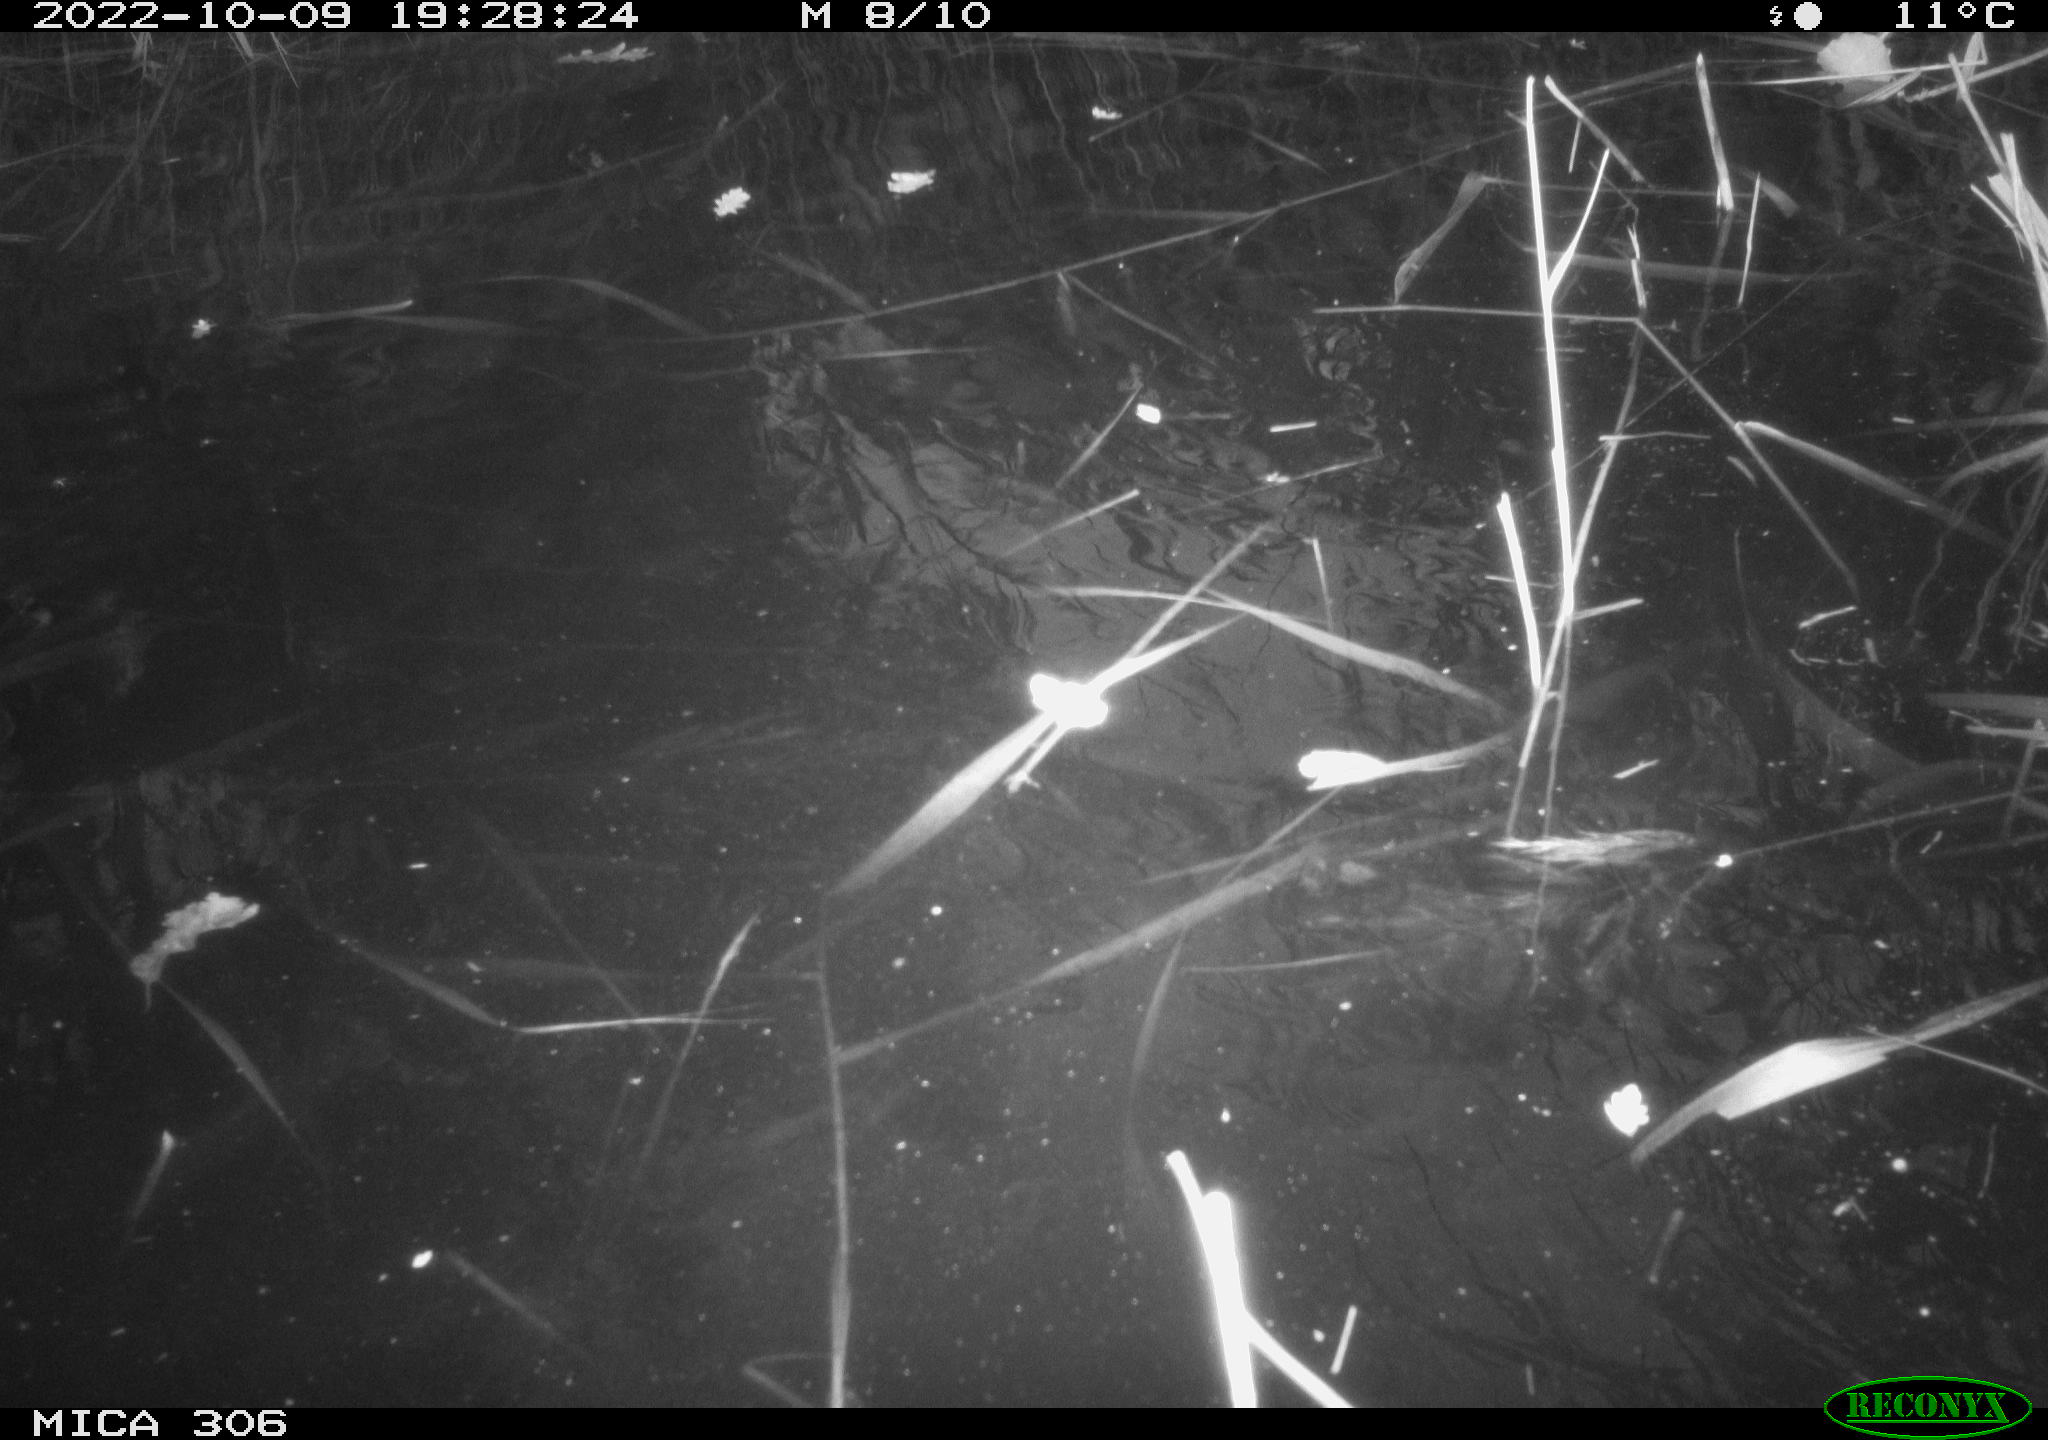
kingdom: Animalia
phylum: Chordata
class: Mammalia
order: Rodentia
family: Muridae
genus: Rattus
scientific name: Rattus norvegicus
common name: Brown rat
